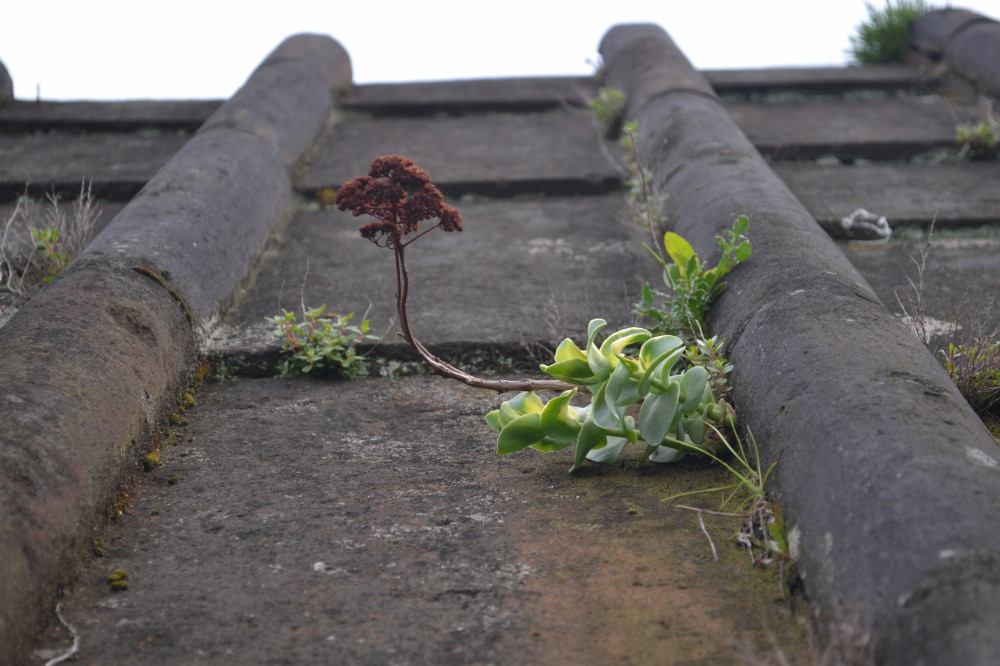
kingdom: Plantae
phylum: Tracheophyta
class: Magnoliopsida
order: Saxifragales
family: Crassulaceae
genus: Hylotelephium
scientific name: Hylotelephium maximum
